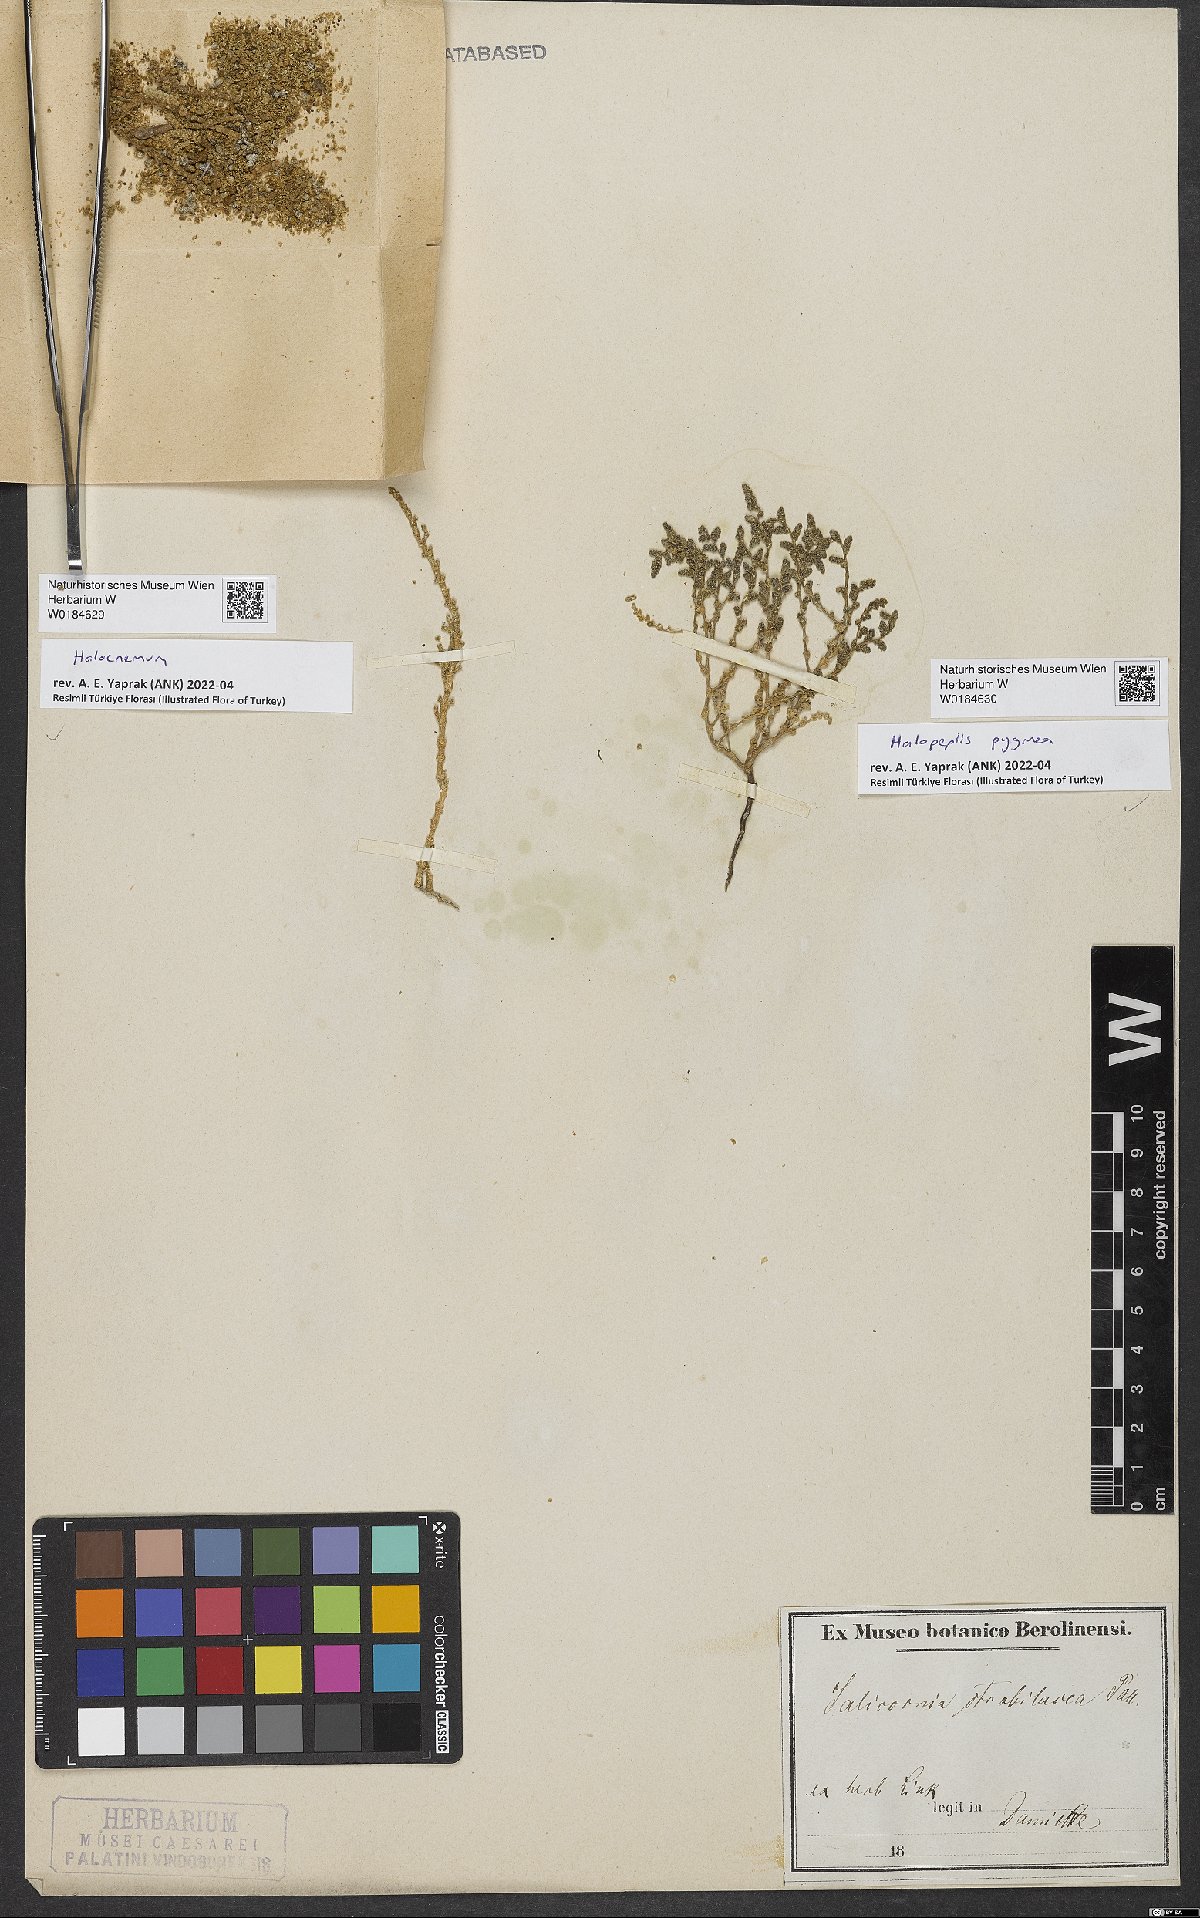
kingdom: Plantae
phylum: Tracheophyta
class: Magnoliopsida
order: Caryophyllales
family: Amaranthaceae
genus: Halopeplis
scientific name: Halopeplis pygmaea
